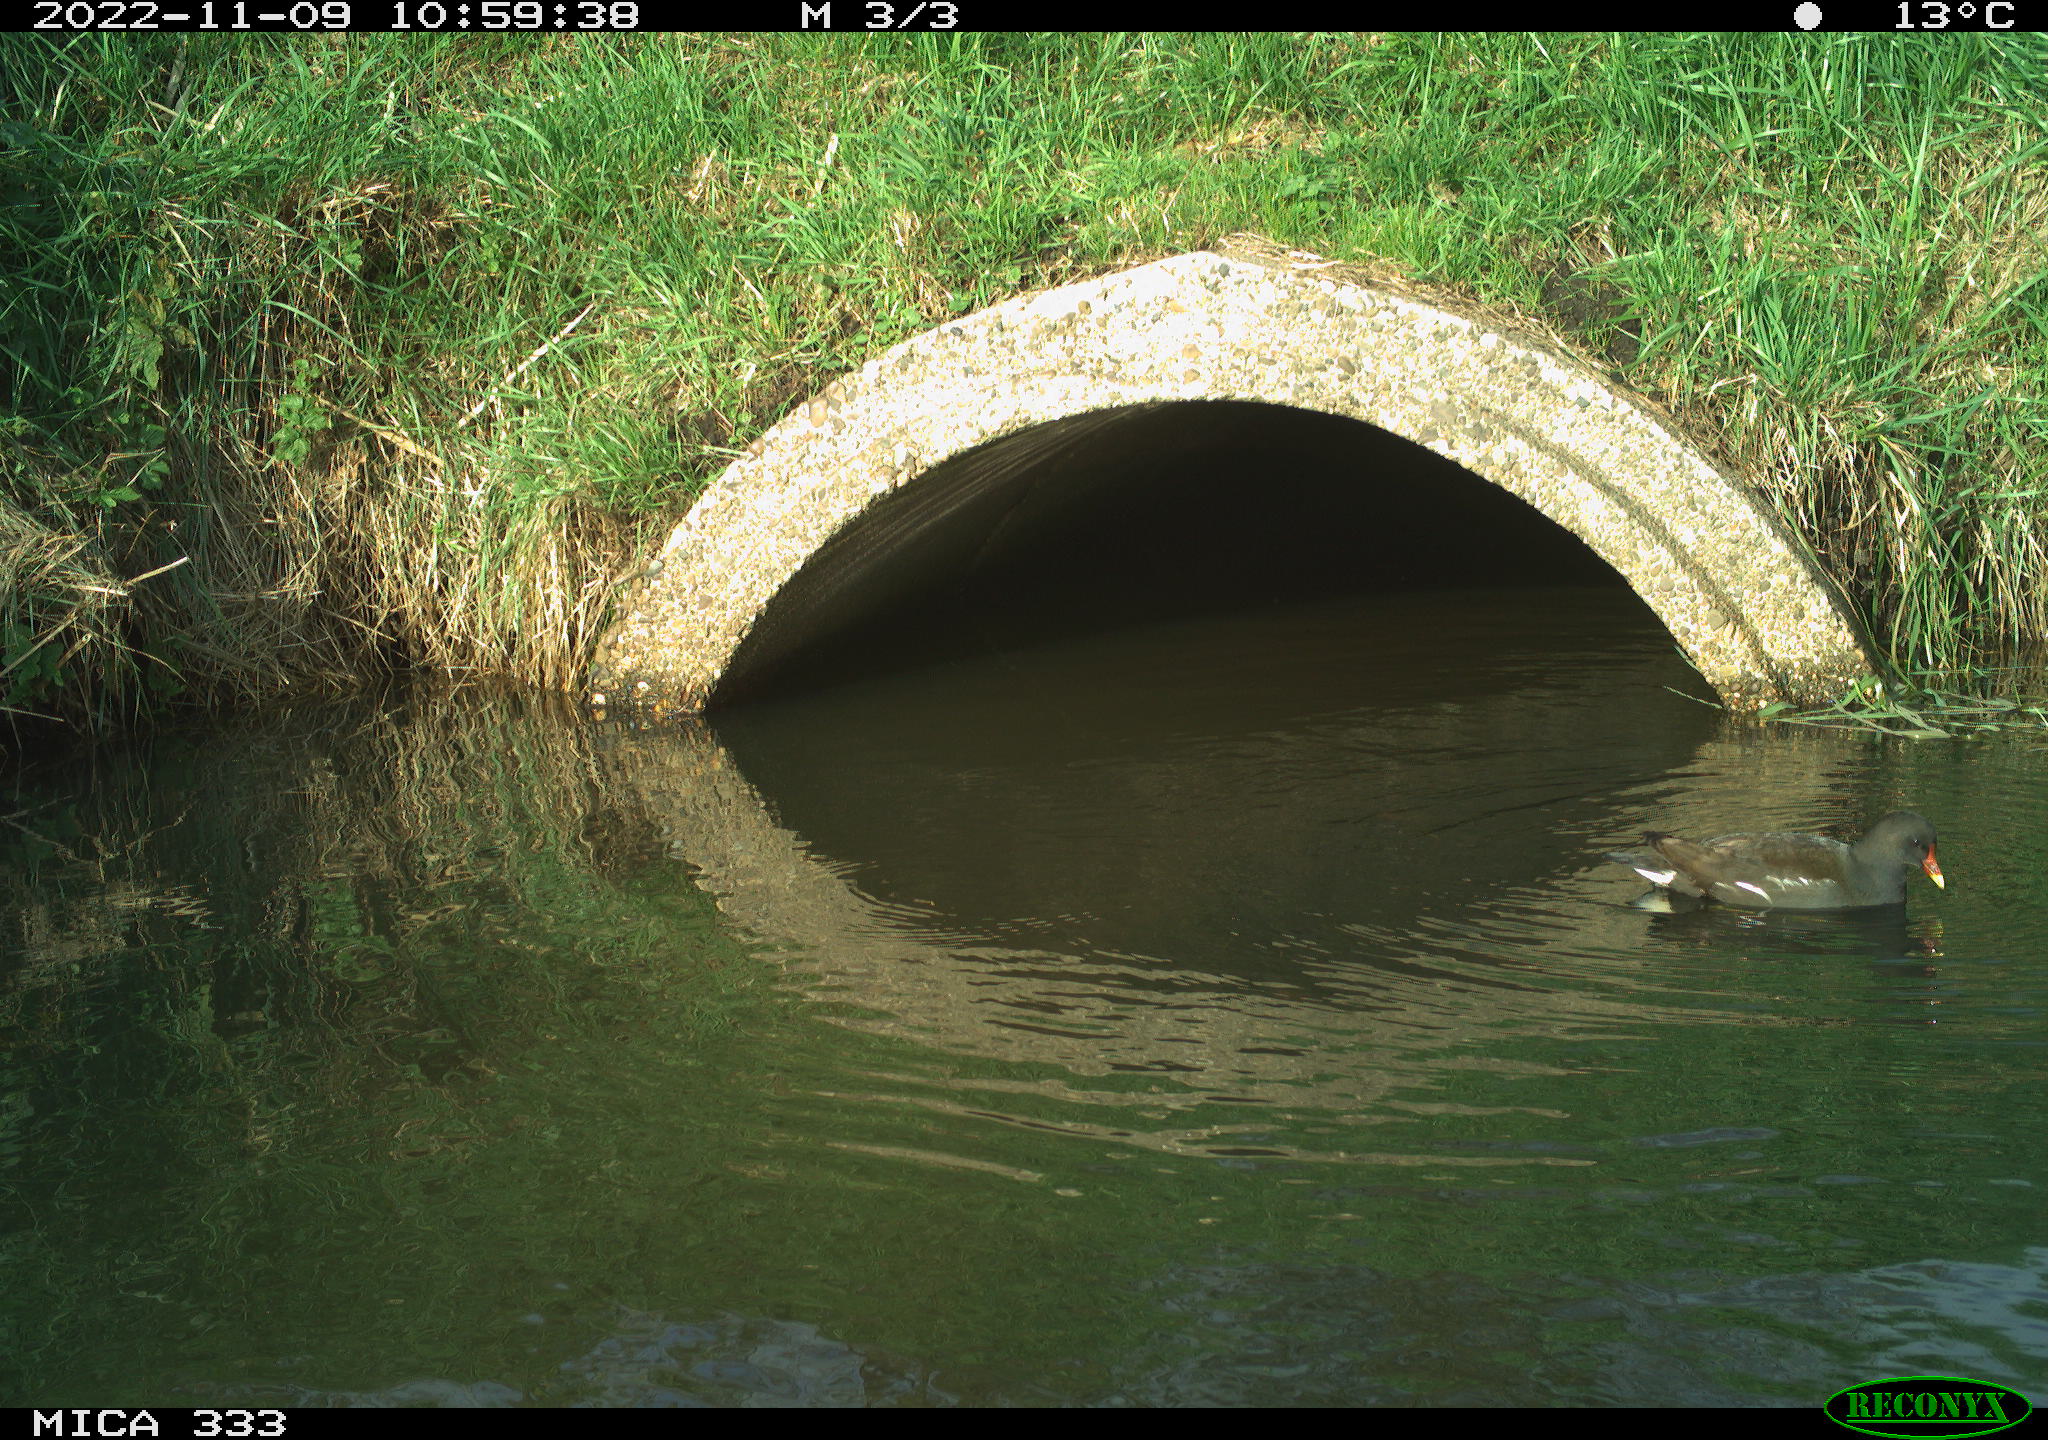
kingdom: Animalia
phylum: Chordata
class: Aves
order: Gruiformes
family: Rallidae
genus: Gallinula
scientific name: Gallinula chloropus
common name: Common moorhen
